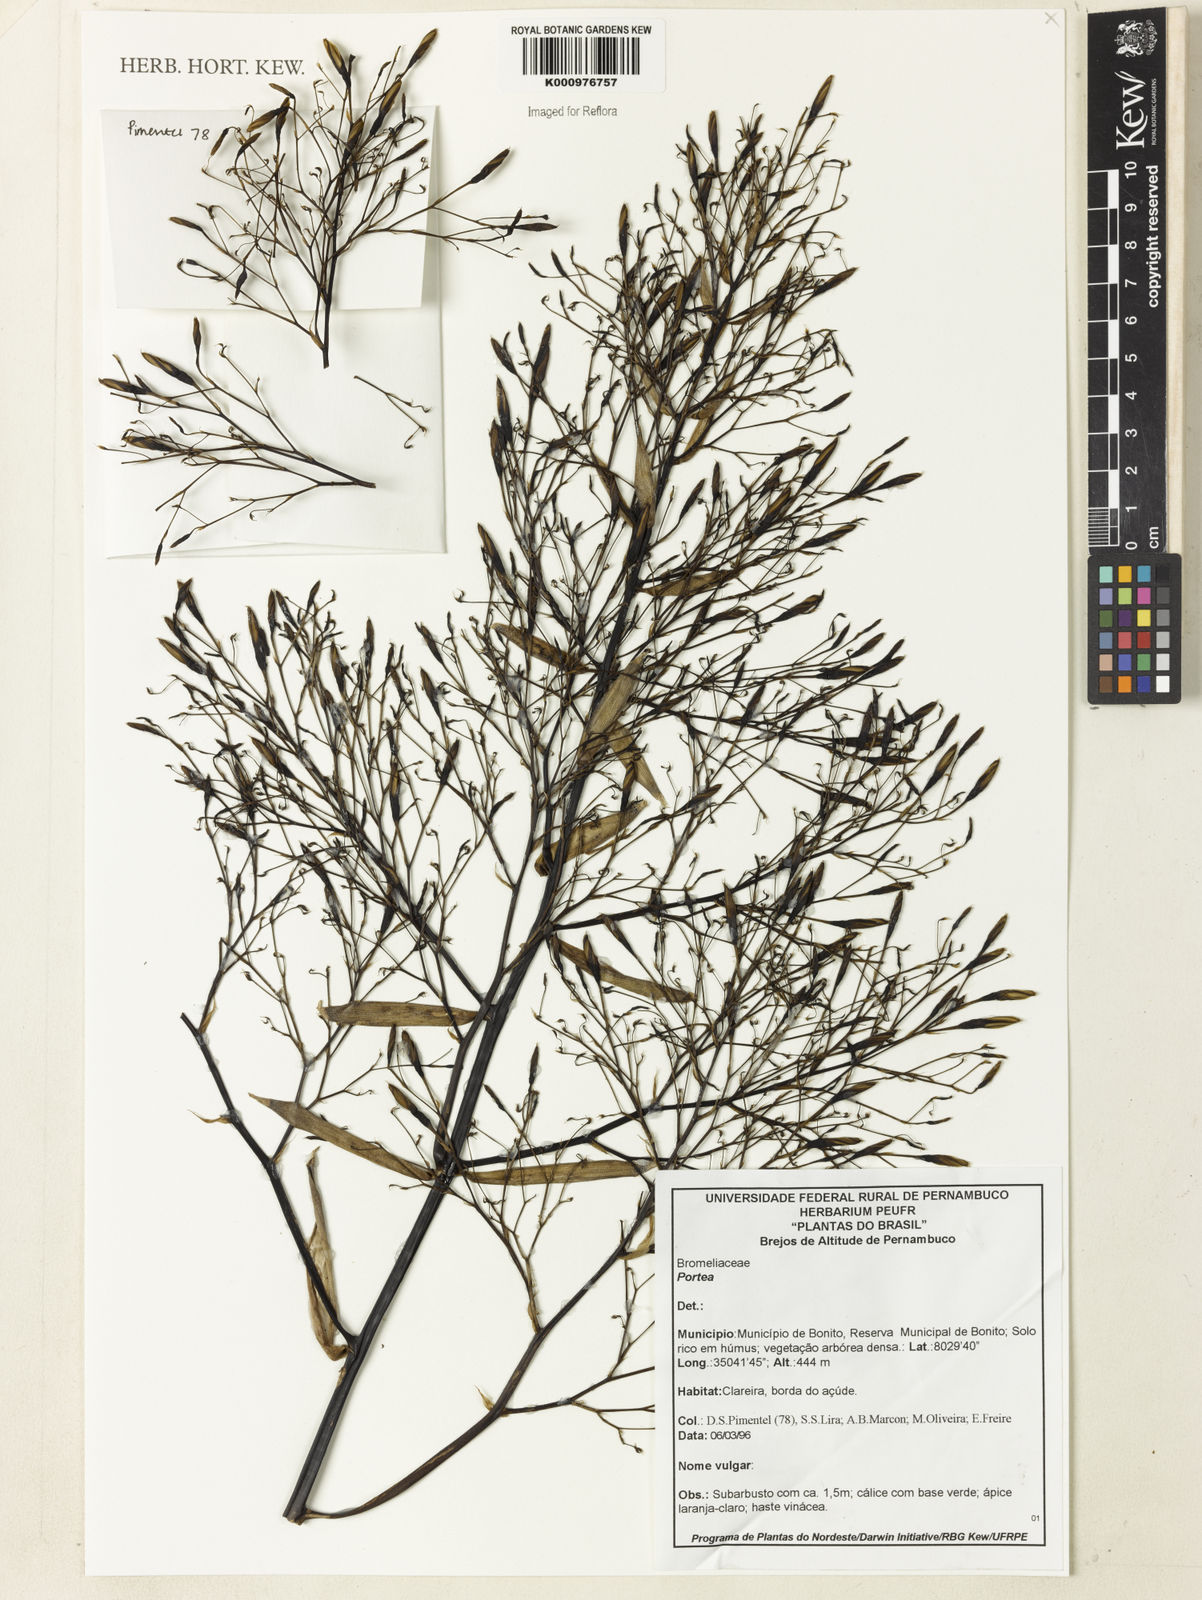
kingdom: Plantae
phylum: Tracheophyta
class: Liliopsida
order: Poales
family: Bromeliaceae
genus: Portea
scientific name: Portea
